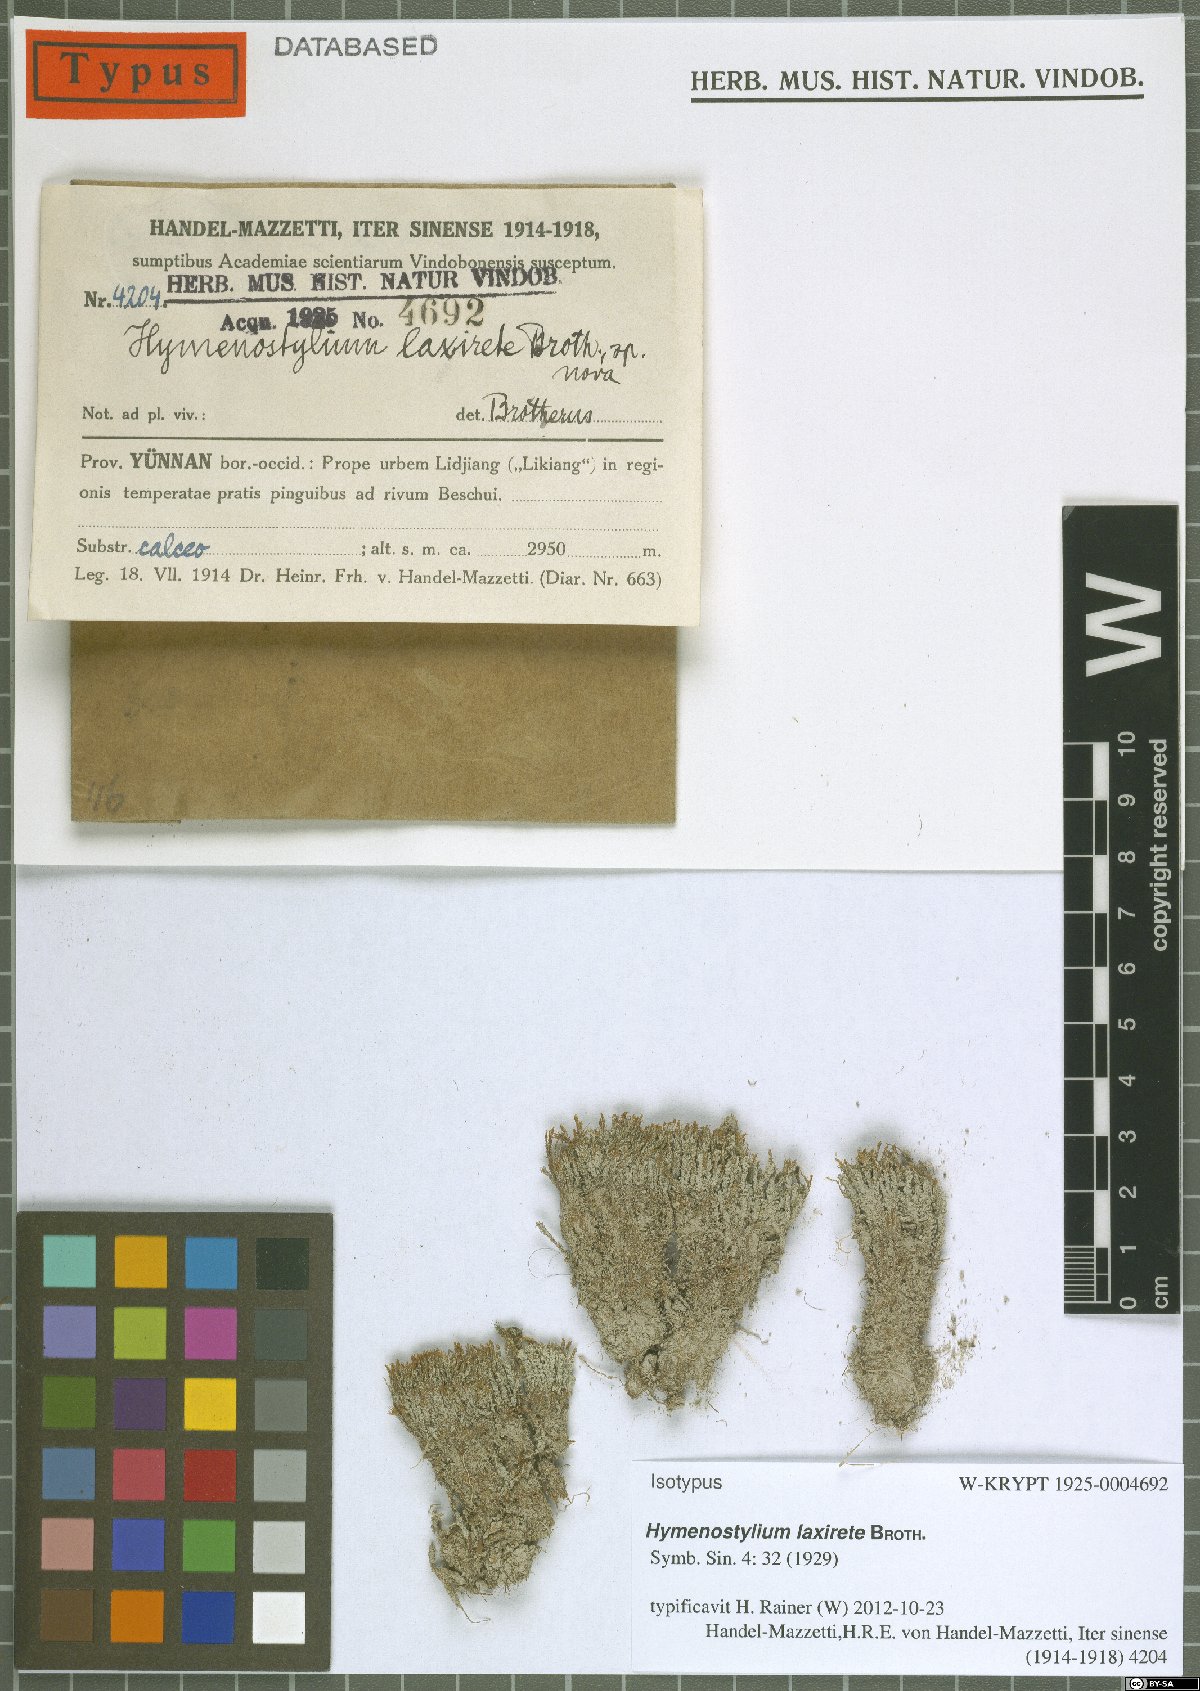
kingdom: Plantae
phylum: Bryophyta
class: Bryopsida
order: Pottiales
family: Pottiaceae
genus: Gymnostomum
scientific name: Gymnostomum laxirete
